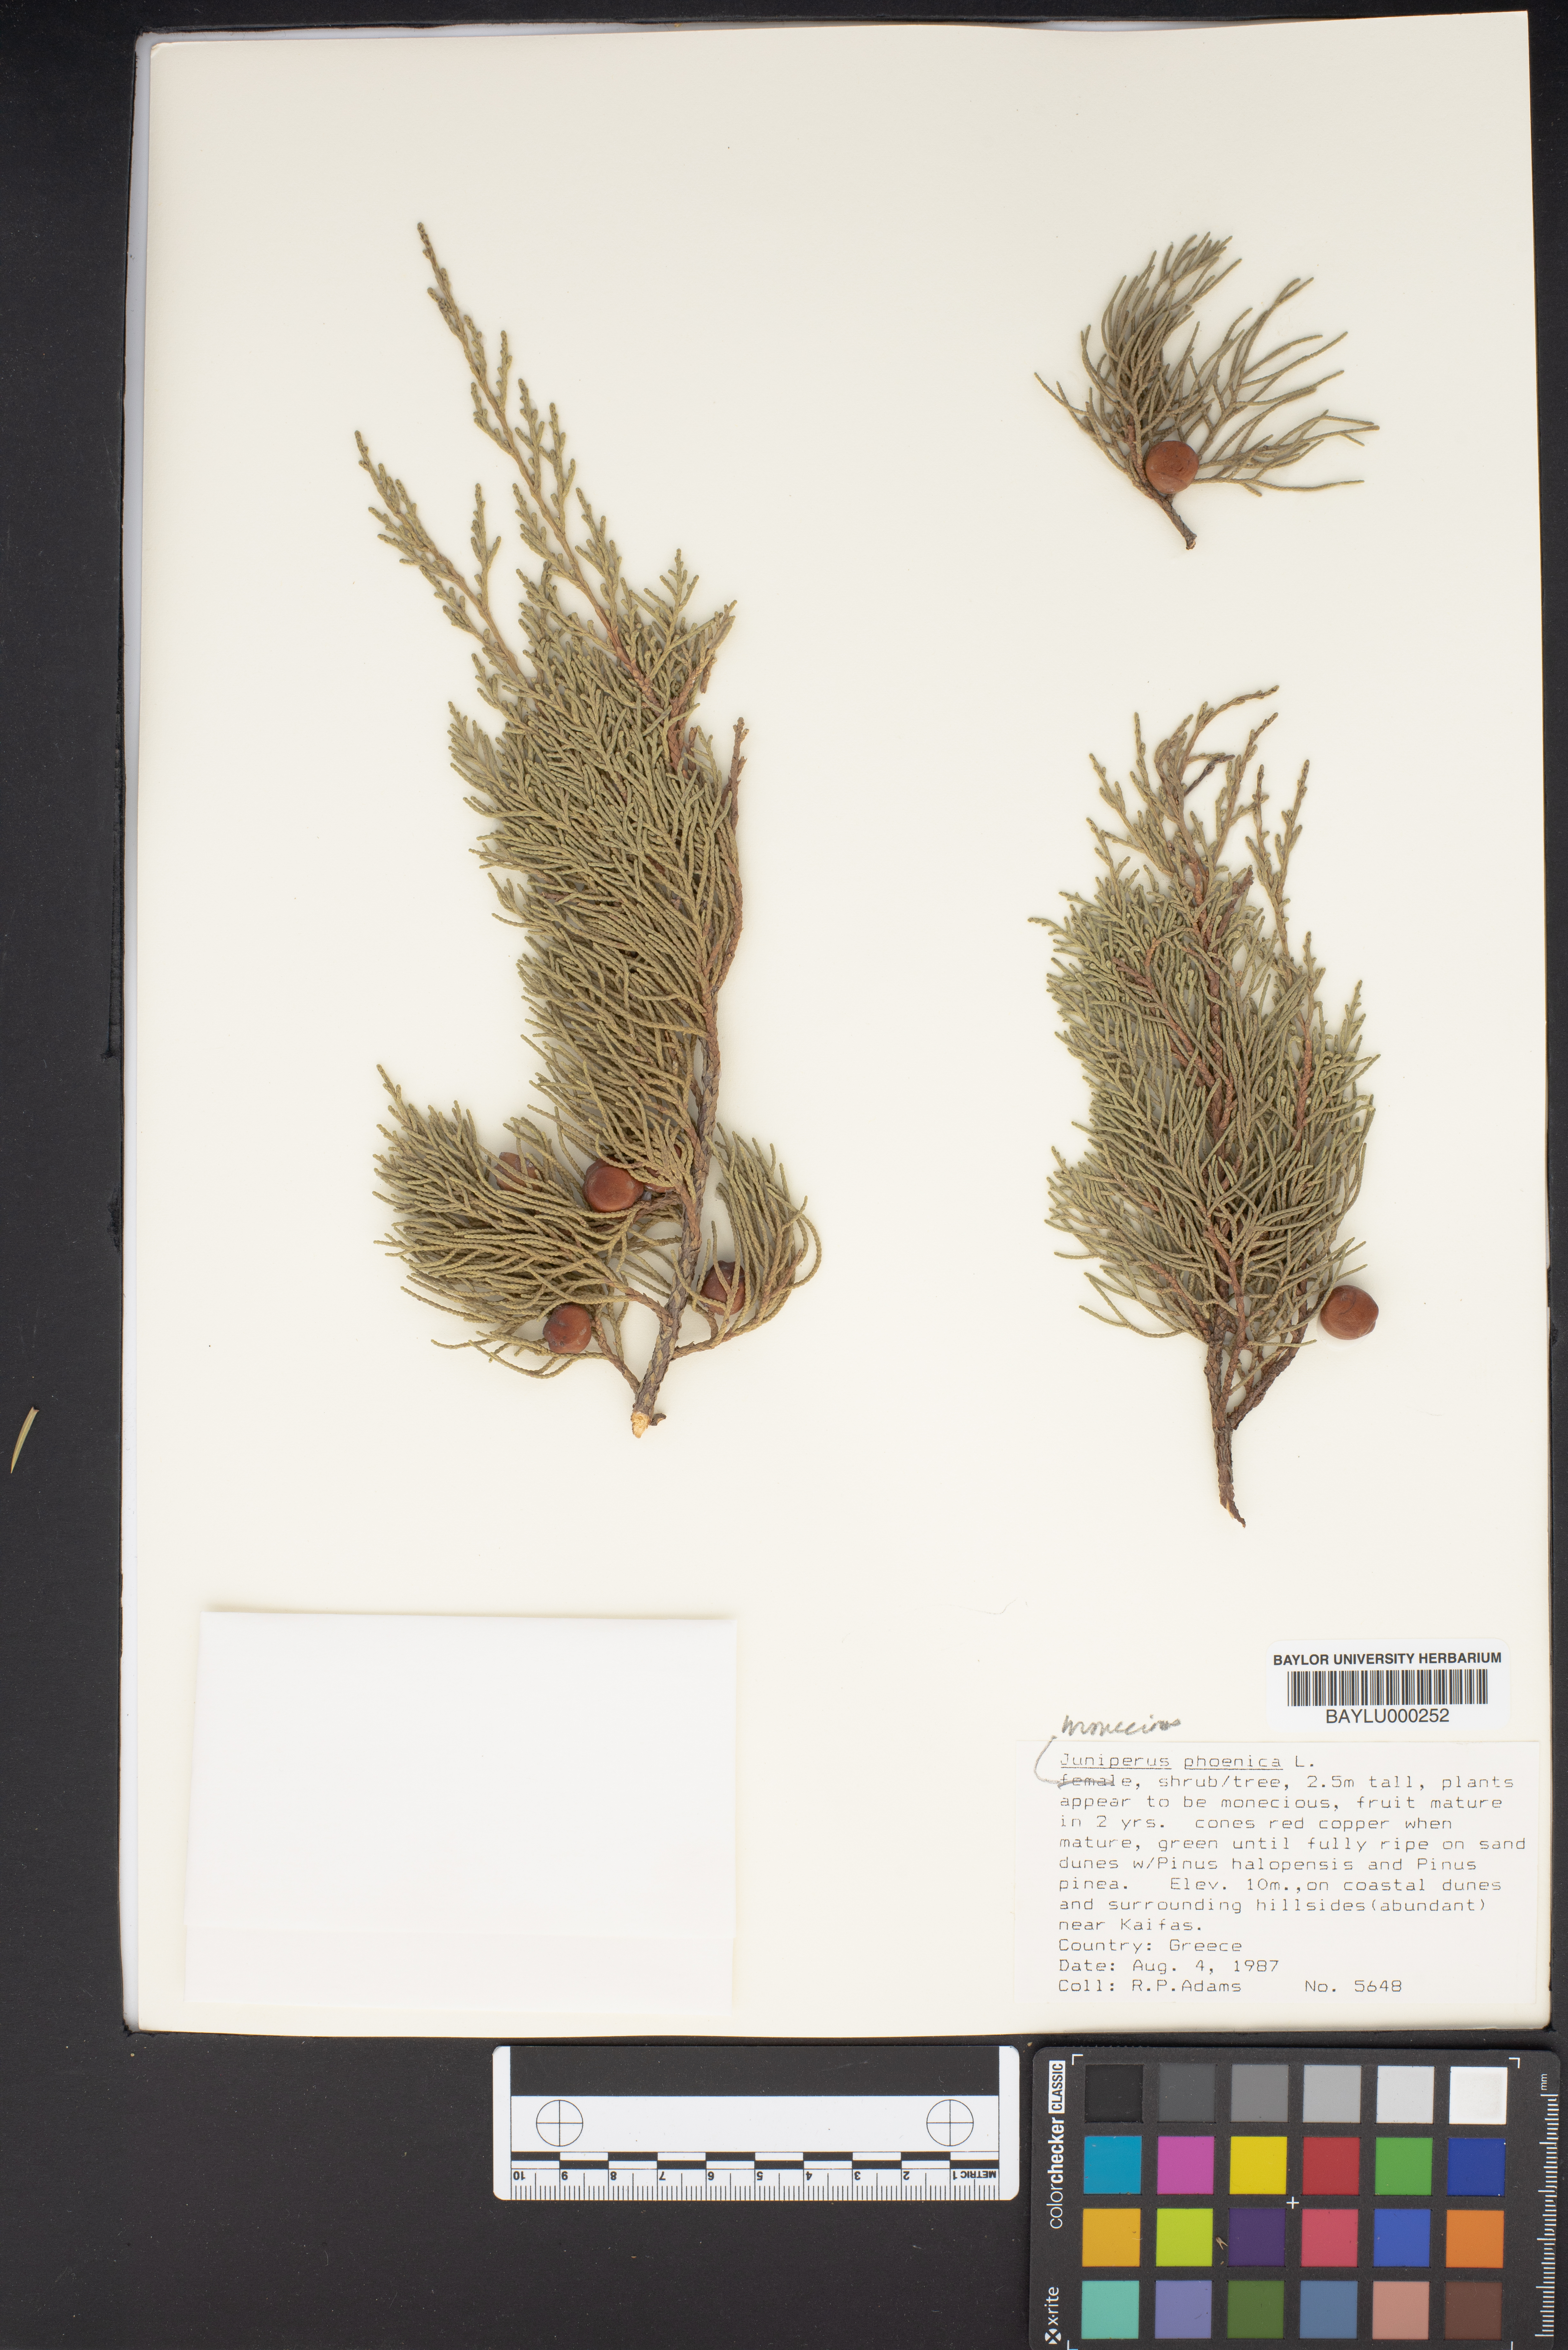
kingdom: Plantae
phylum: Tracheophyta
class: Pinopsida
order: Pinales
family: Cupressaceae
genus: Juniperus
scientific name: Juniperus phoenicea
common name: Phoenician juniper
